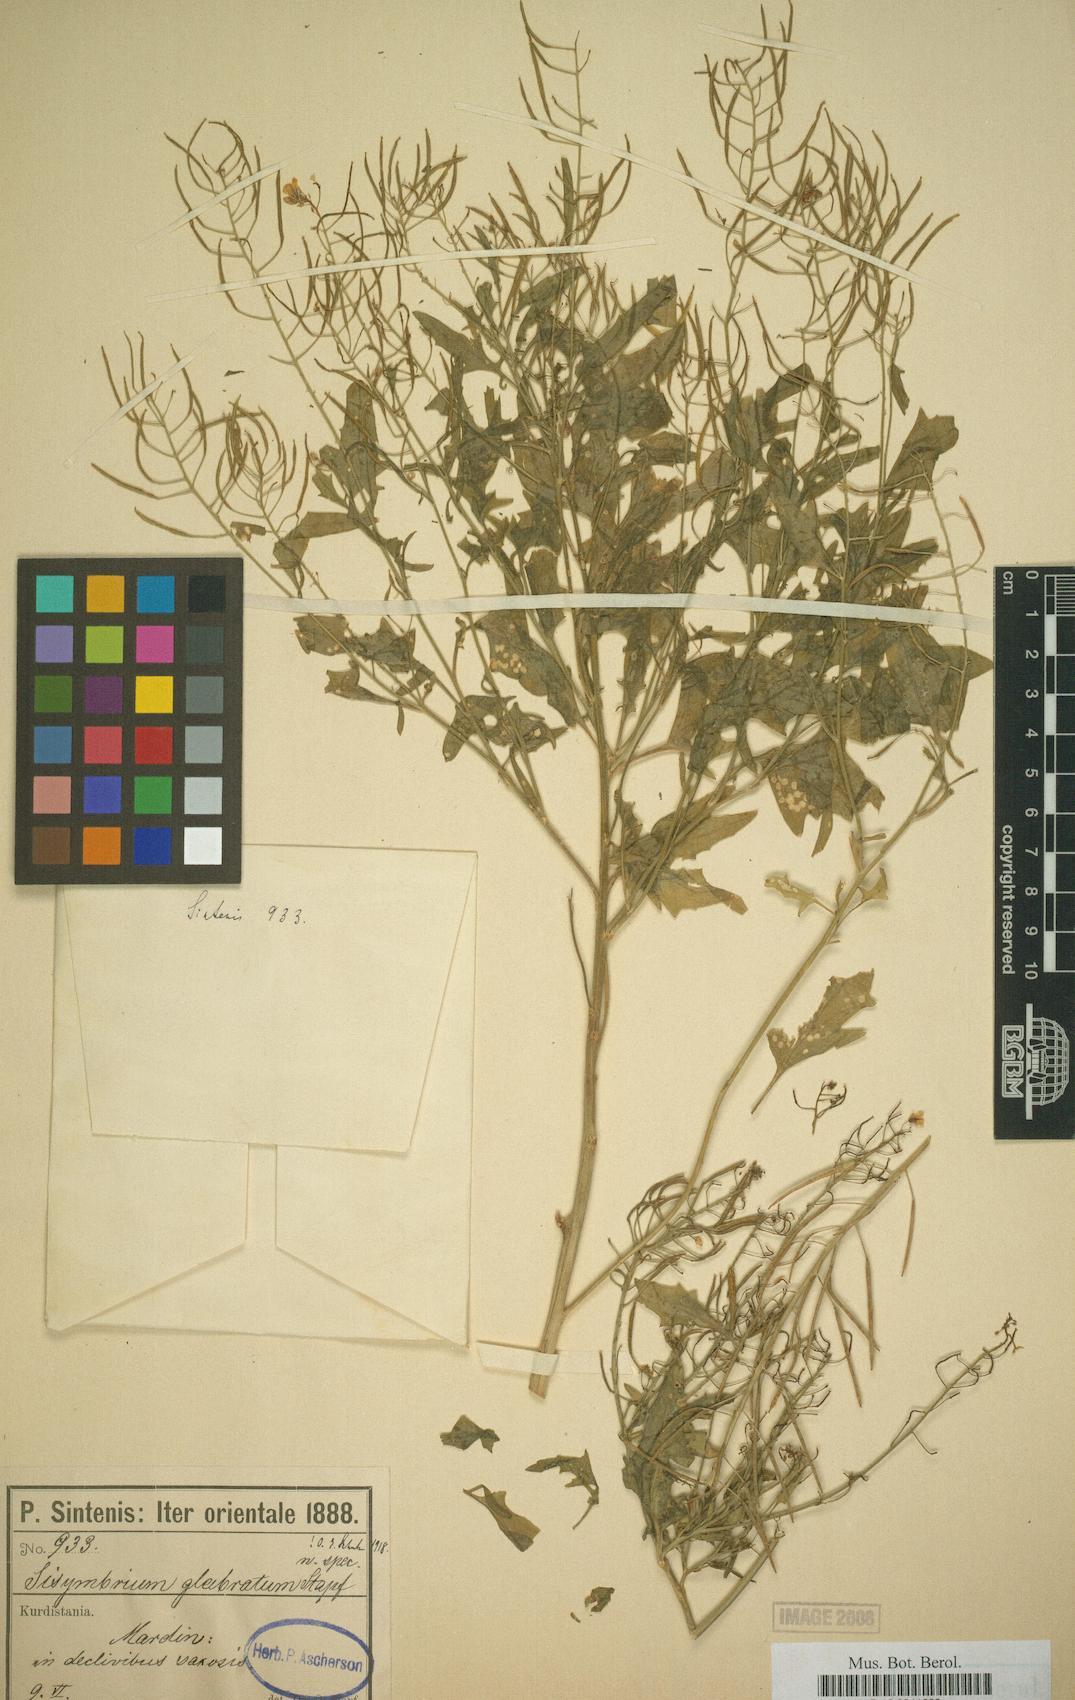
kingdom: Plantae
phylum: Tracheophyta
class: Magnoliopsida
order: Brassicales
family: Brassicaceae
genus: Sisymbrium
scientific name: Sisymbrium loeselii
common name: False london-rocket
